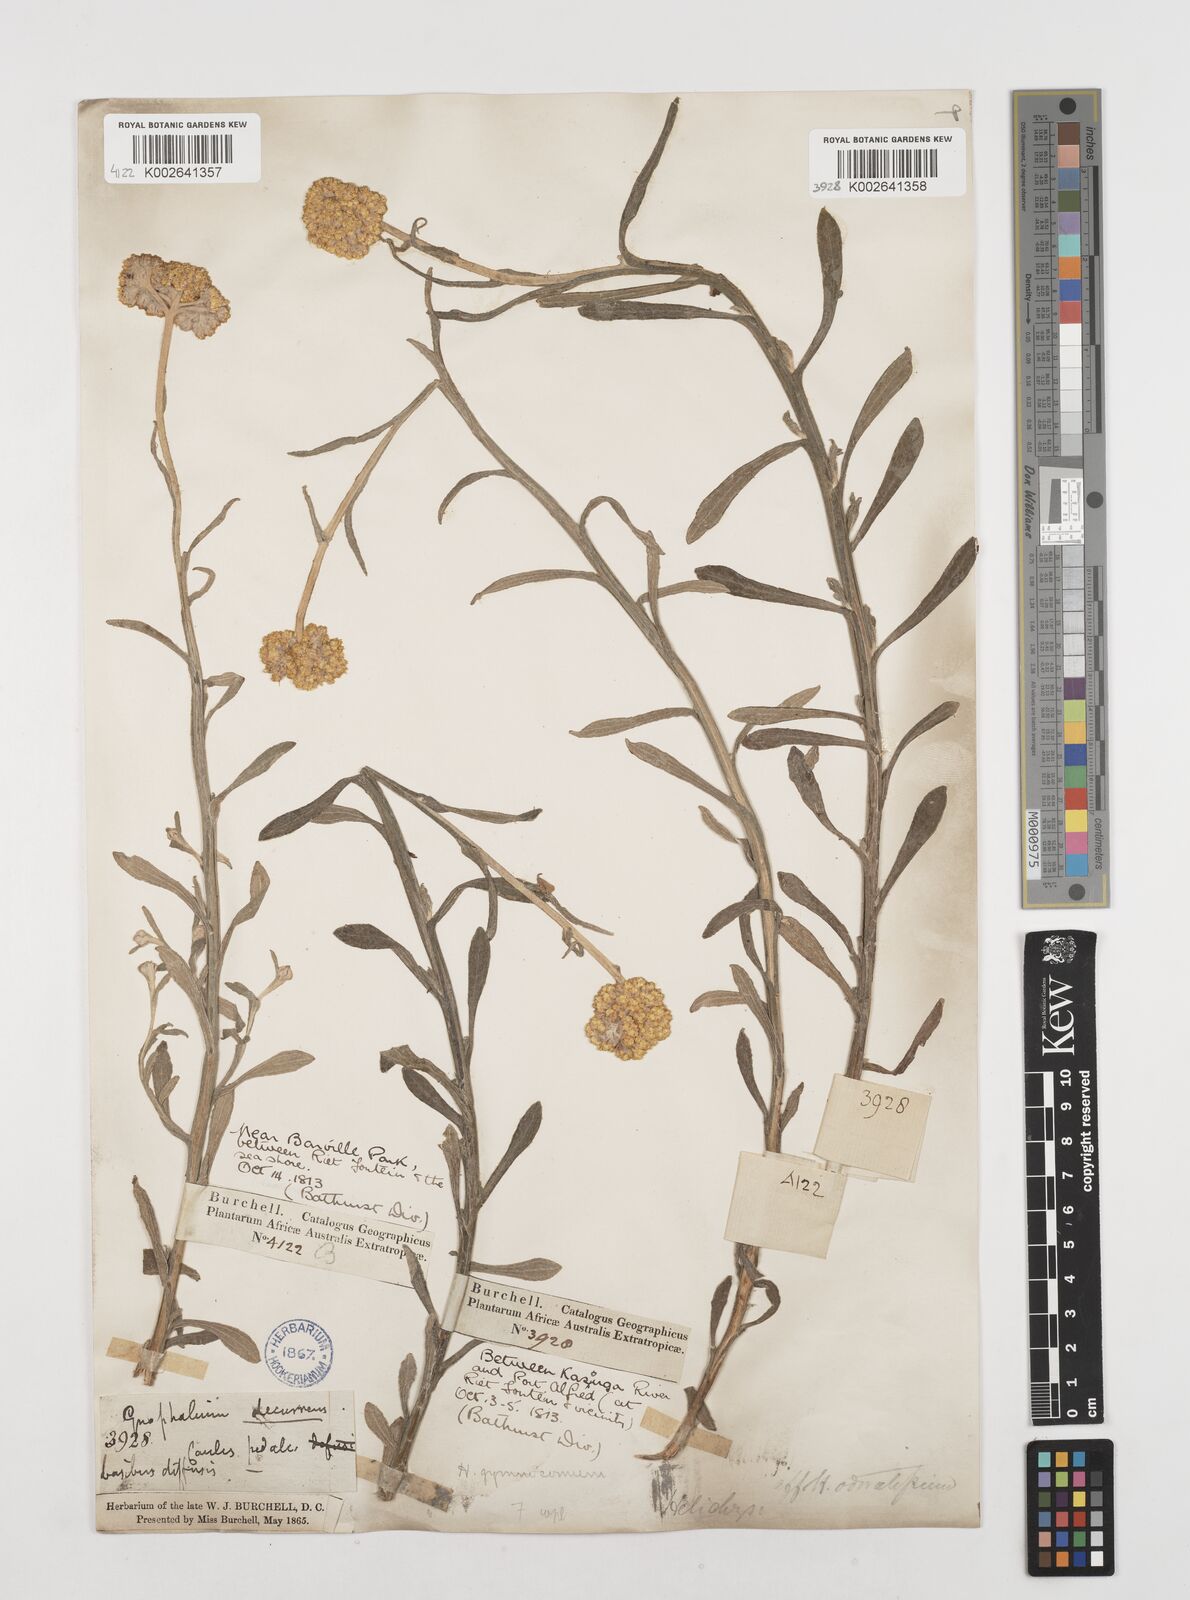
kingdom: Plantae
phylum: Tracheophyta
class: Magnoliopsida
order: Asterales
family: Asteraceae
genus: Helichrysum
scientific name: Helichrysum odoratissimum
